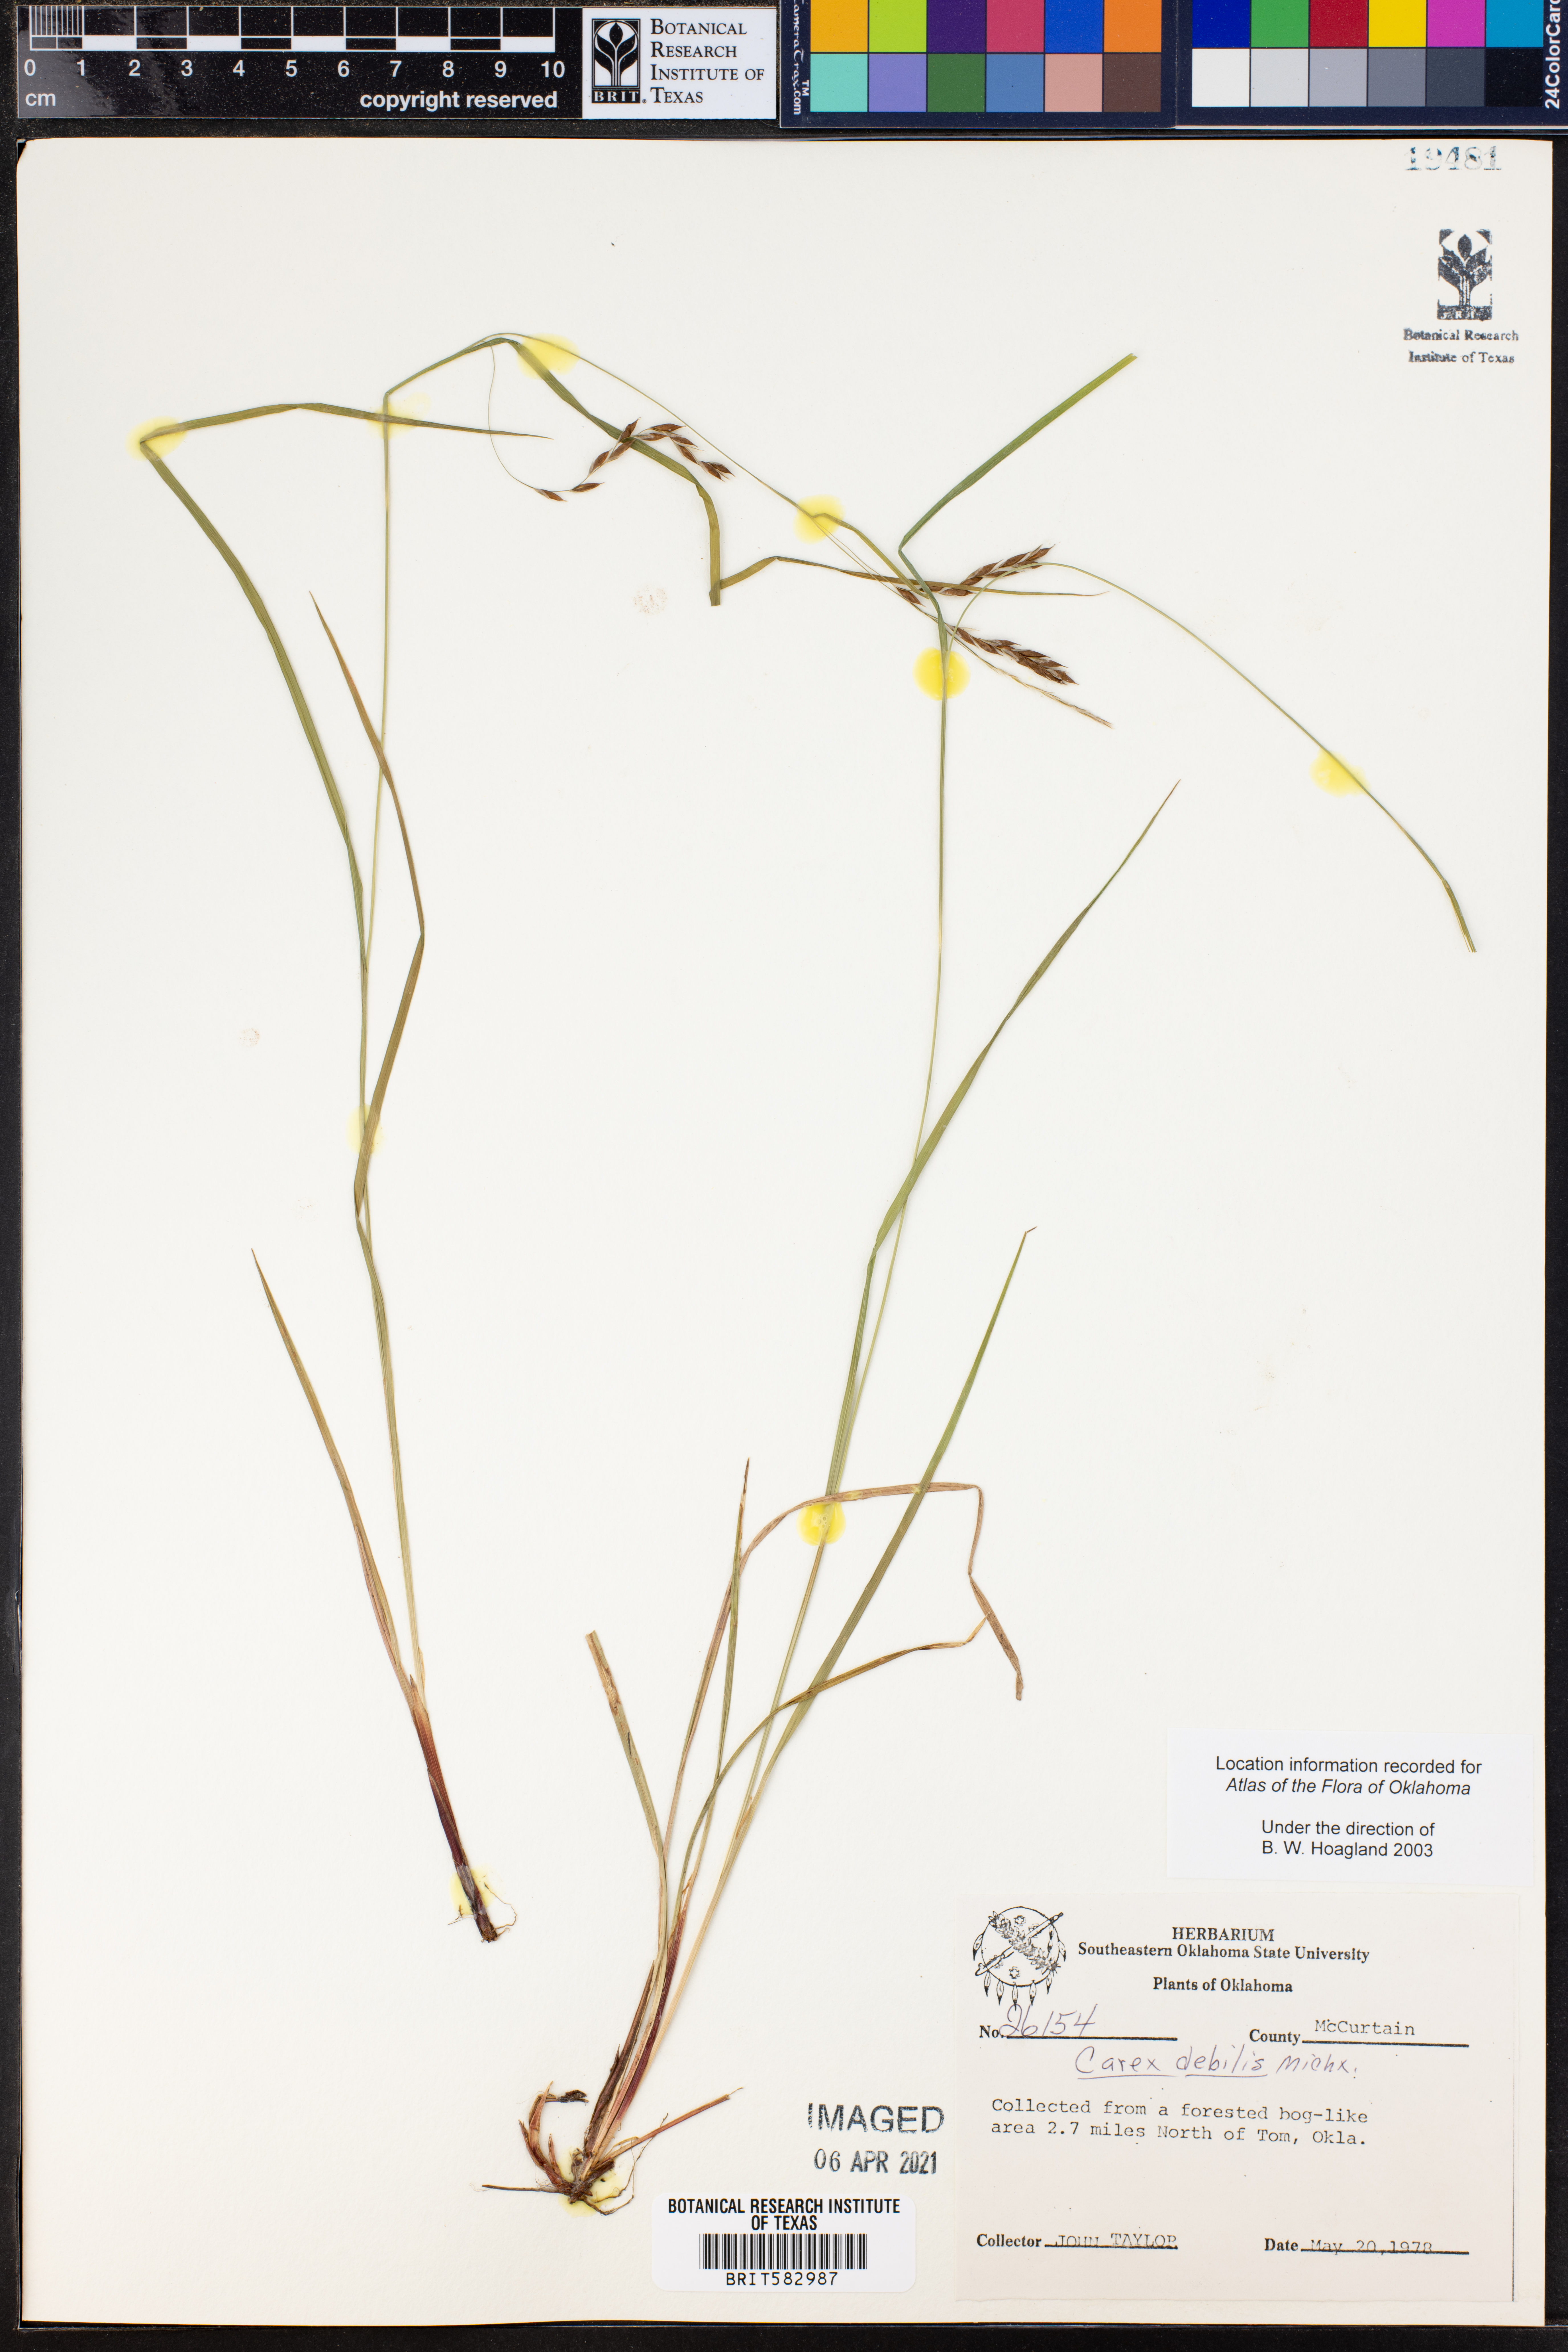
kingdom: Plantae
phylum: Tracheophyta
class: Liliopsida
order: Poales
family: Cyperaceae
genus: Carex
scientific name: Carex debilis
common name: White-edge sedge
